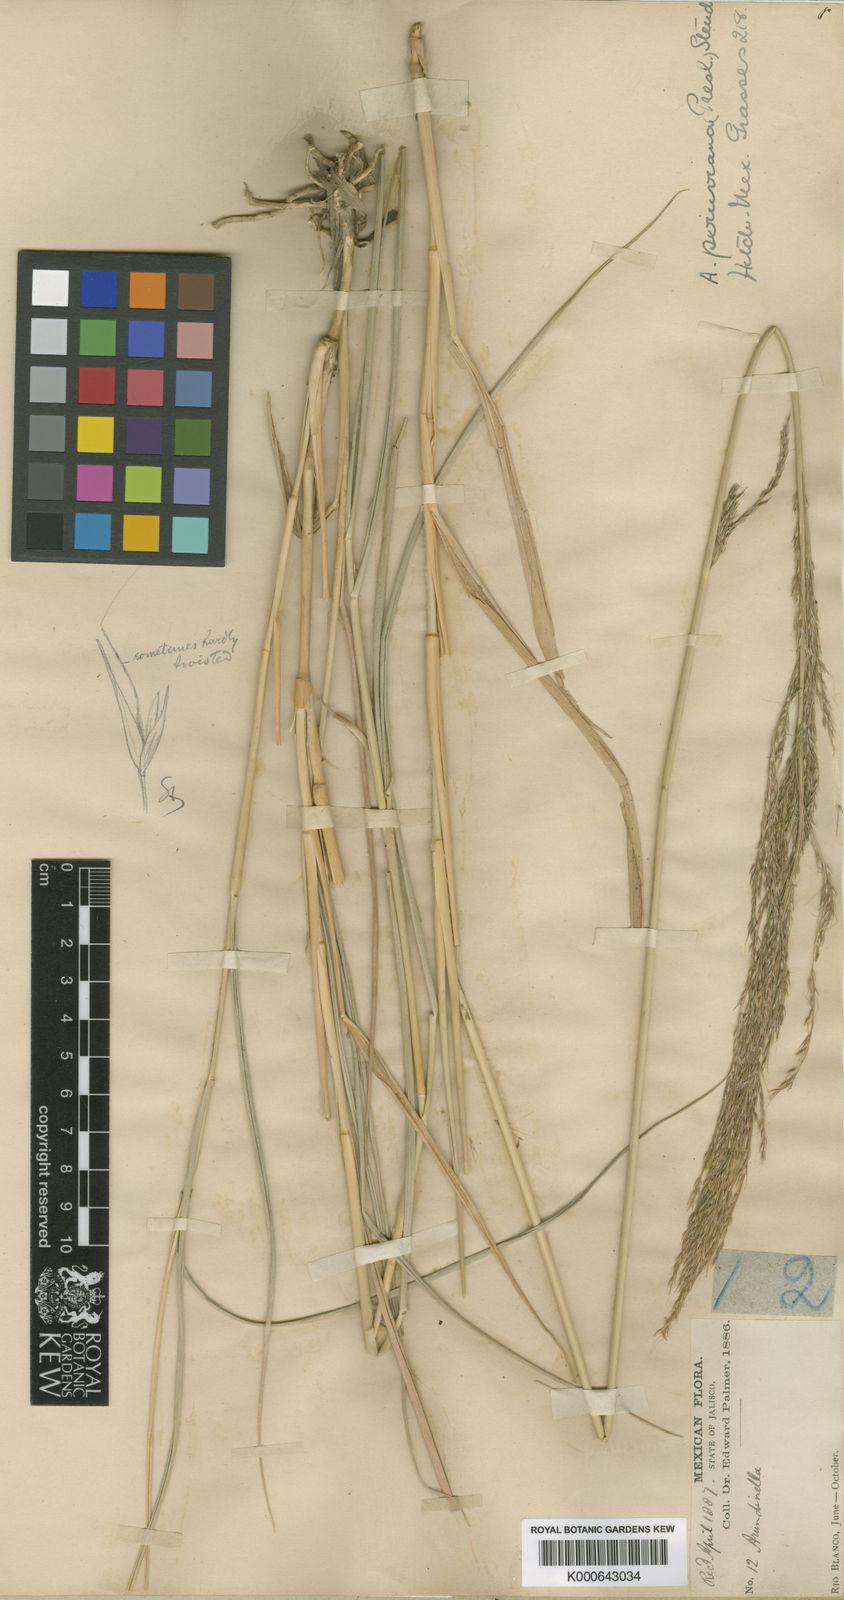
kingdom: Plantae
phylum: Tracheophyta
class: Liliopsida
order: Poales
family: Poaceae
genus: Arundinella
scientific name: Arundinella
